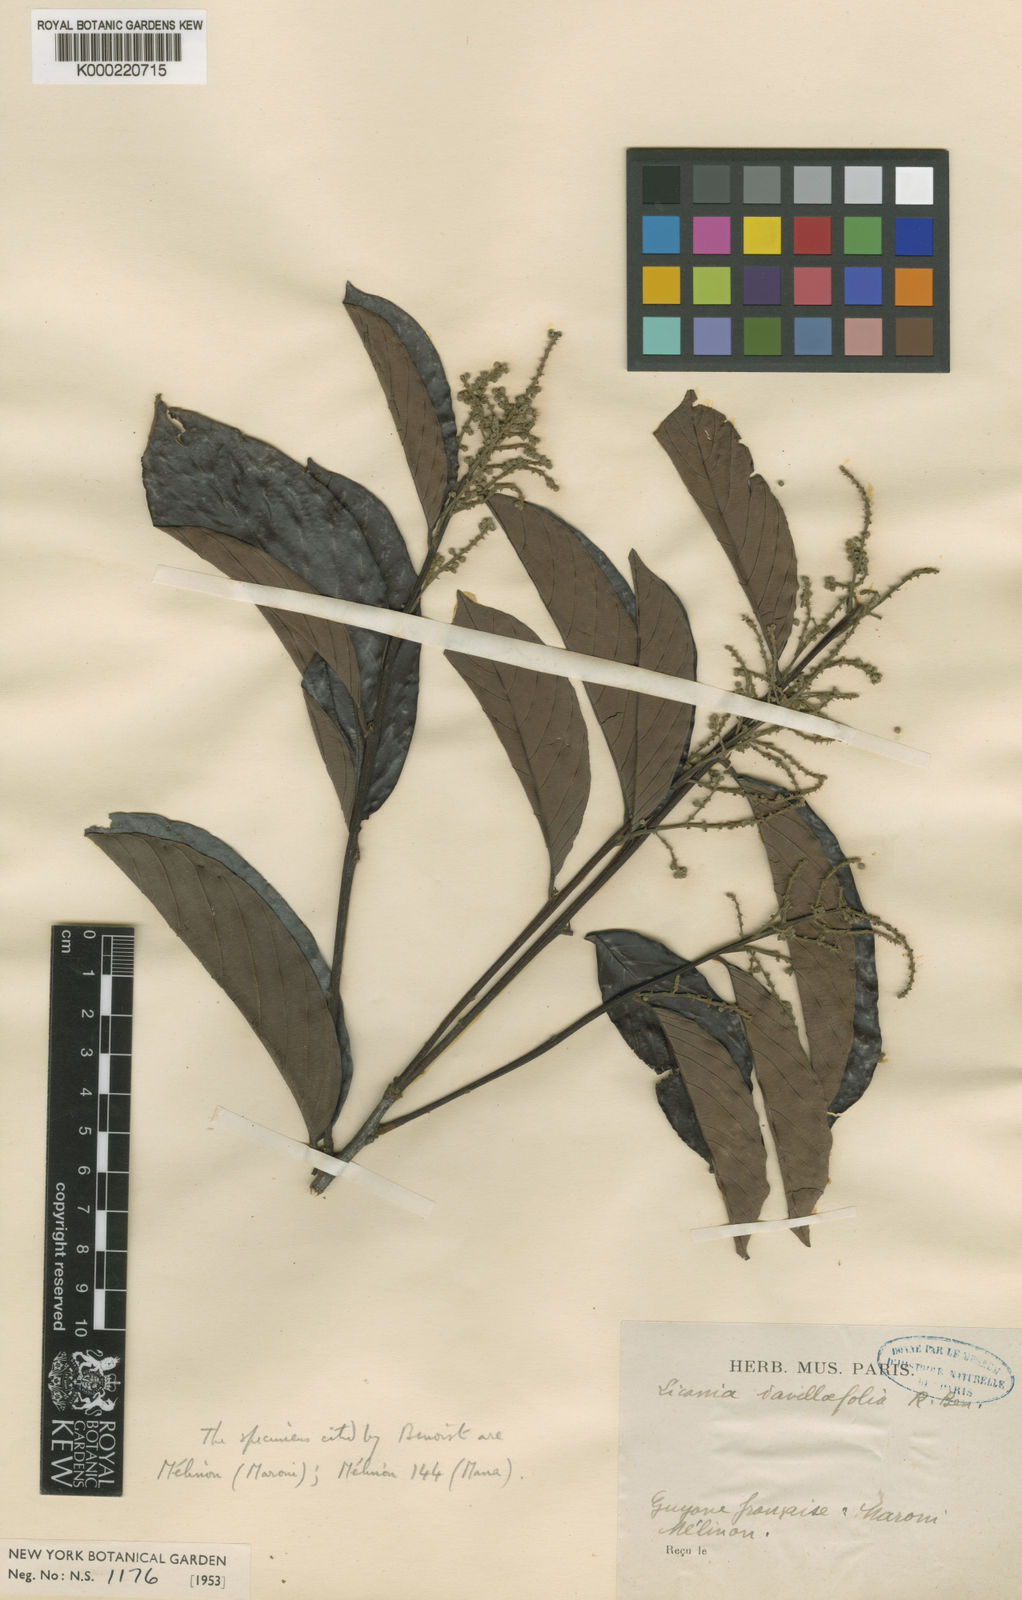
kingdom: Plantae
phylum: Tracheophyta
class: Magnoliopsida
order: Malpighiales
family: Chrysobalanaceae
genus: Licania
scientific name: Licania davillifolia
